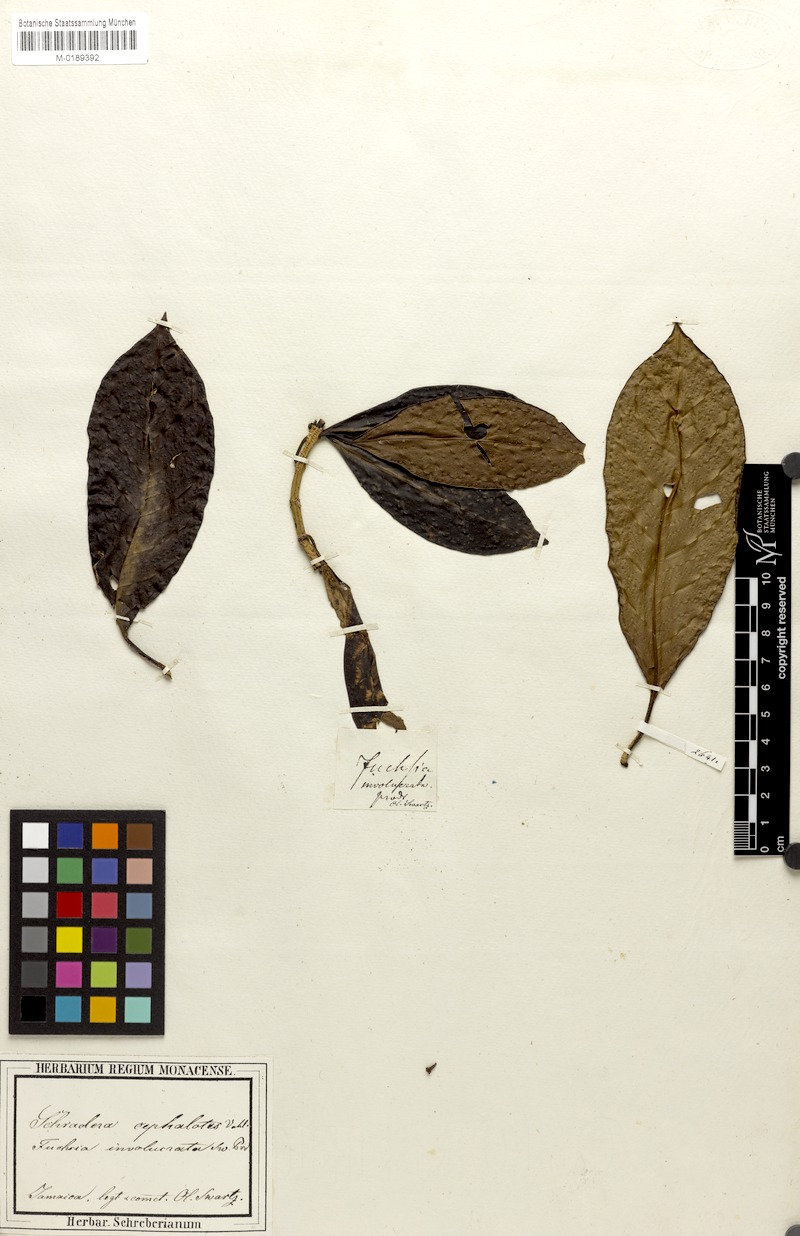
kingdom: Plantae
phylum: Tracheophyta
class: Magnoliopsida
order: Gentianales
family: Rubiaceae
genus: Schradera
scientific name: Schradera involucrata
